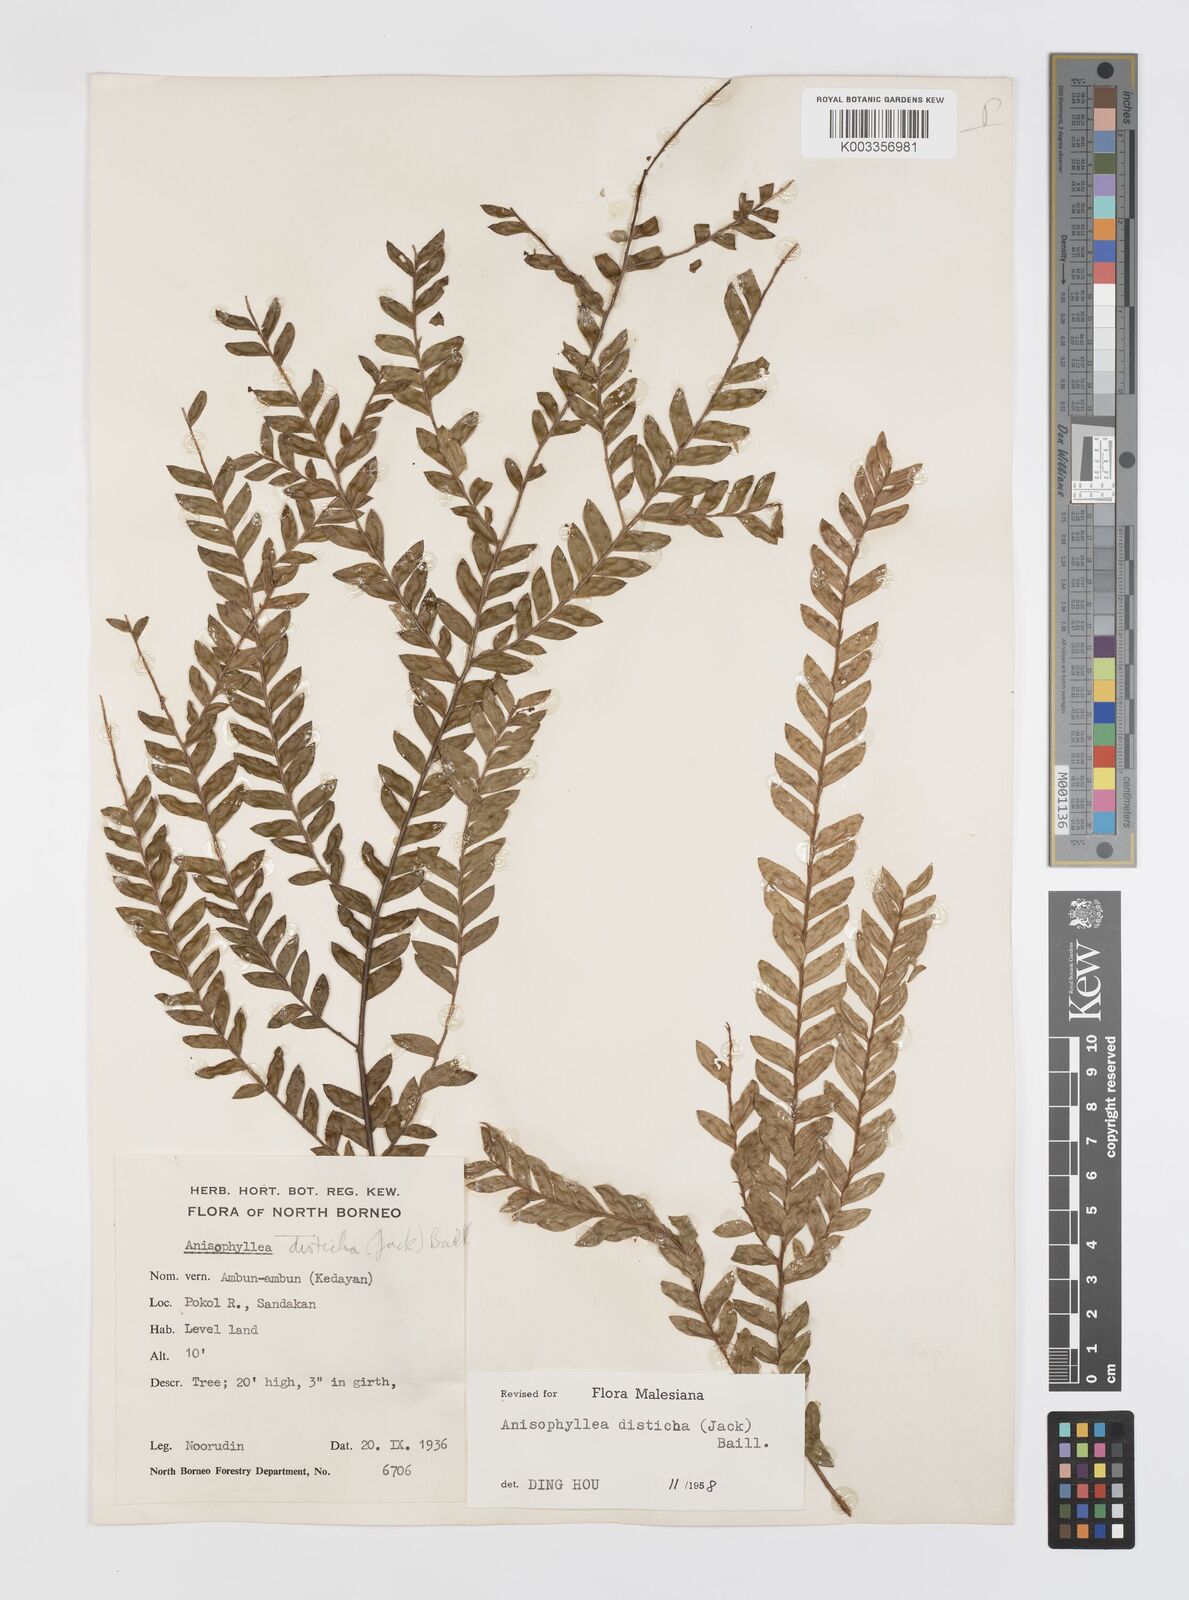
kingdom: Plantae
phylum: Tracheophyta
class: Magnoliopsida
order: Cucurbitales
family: Anisophylleaceae
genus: Anisophyllea
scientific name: Anisophyllea disticha
